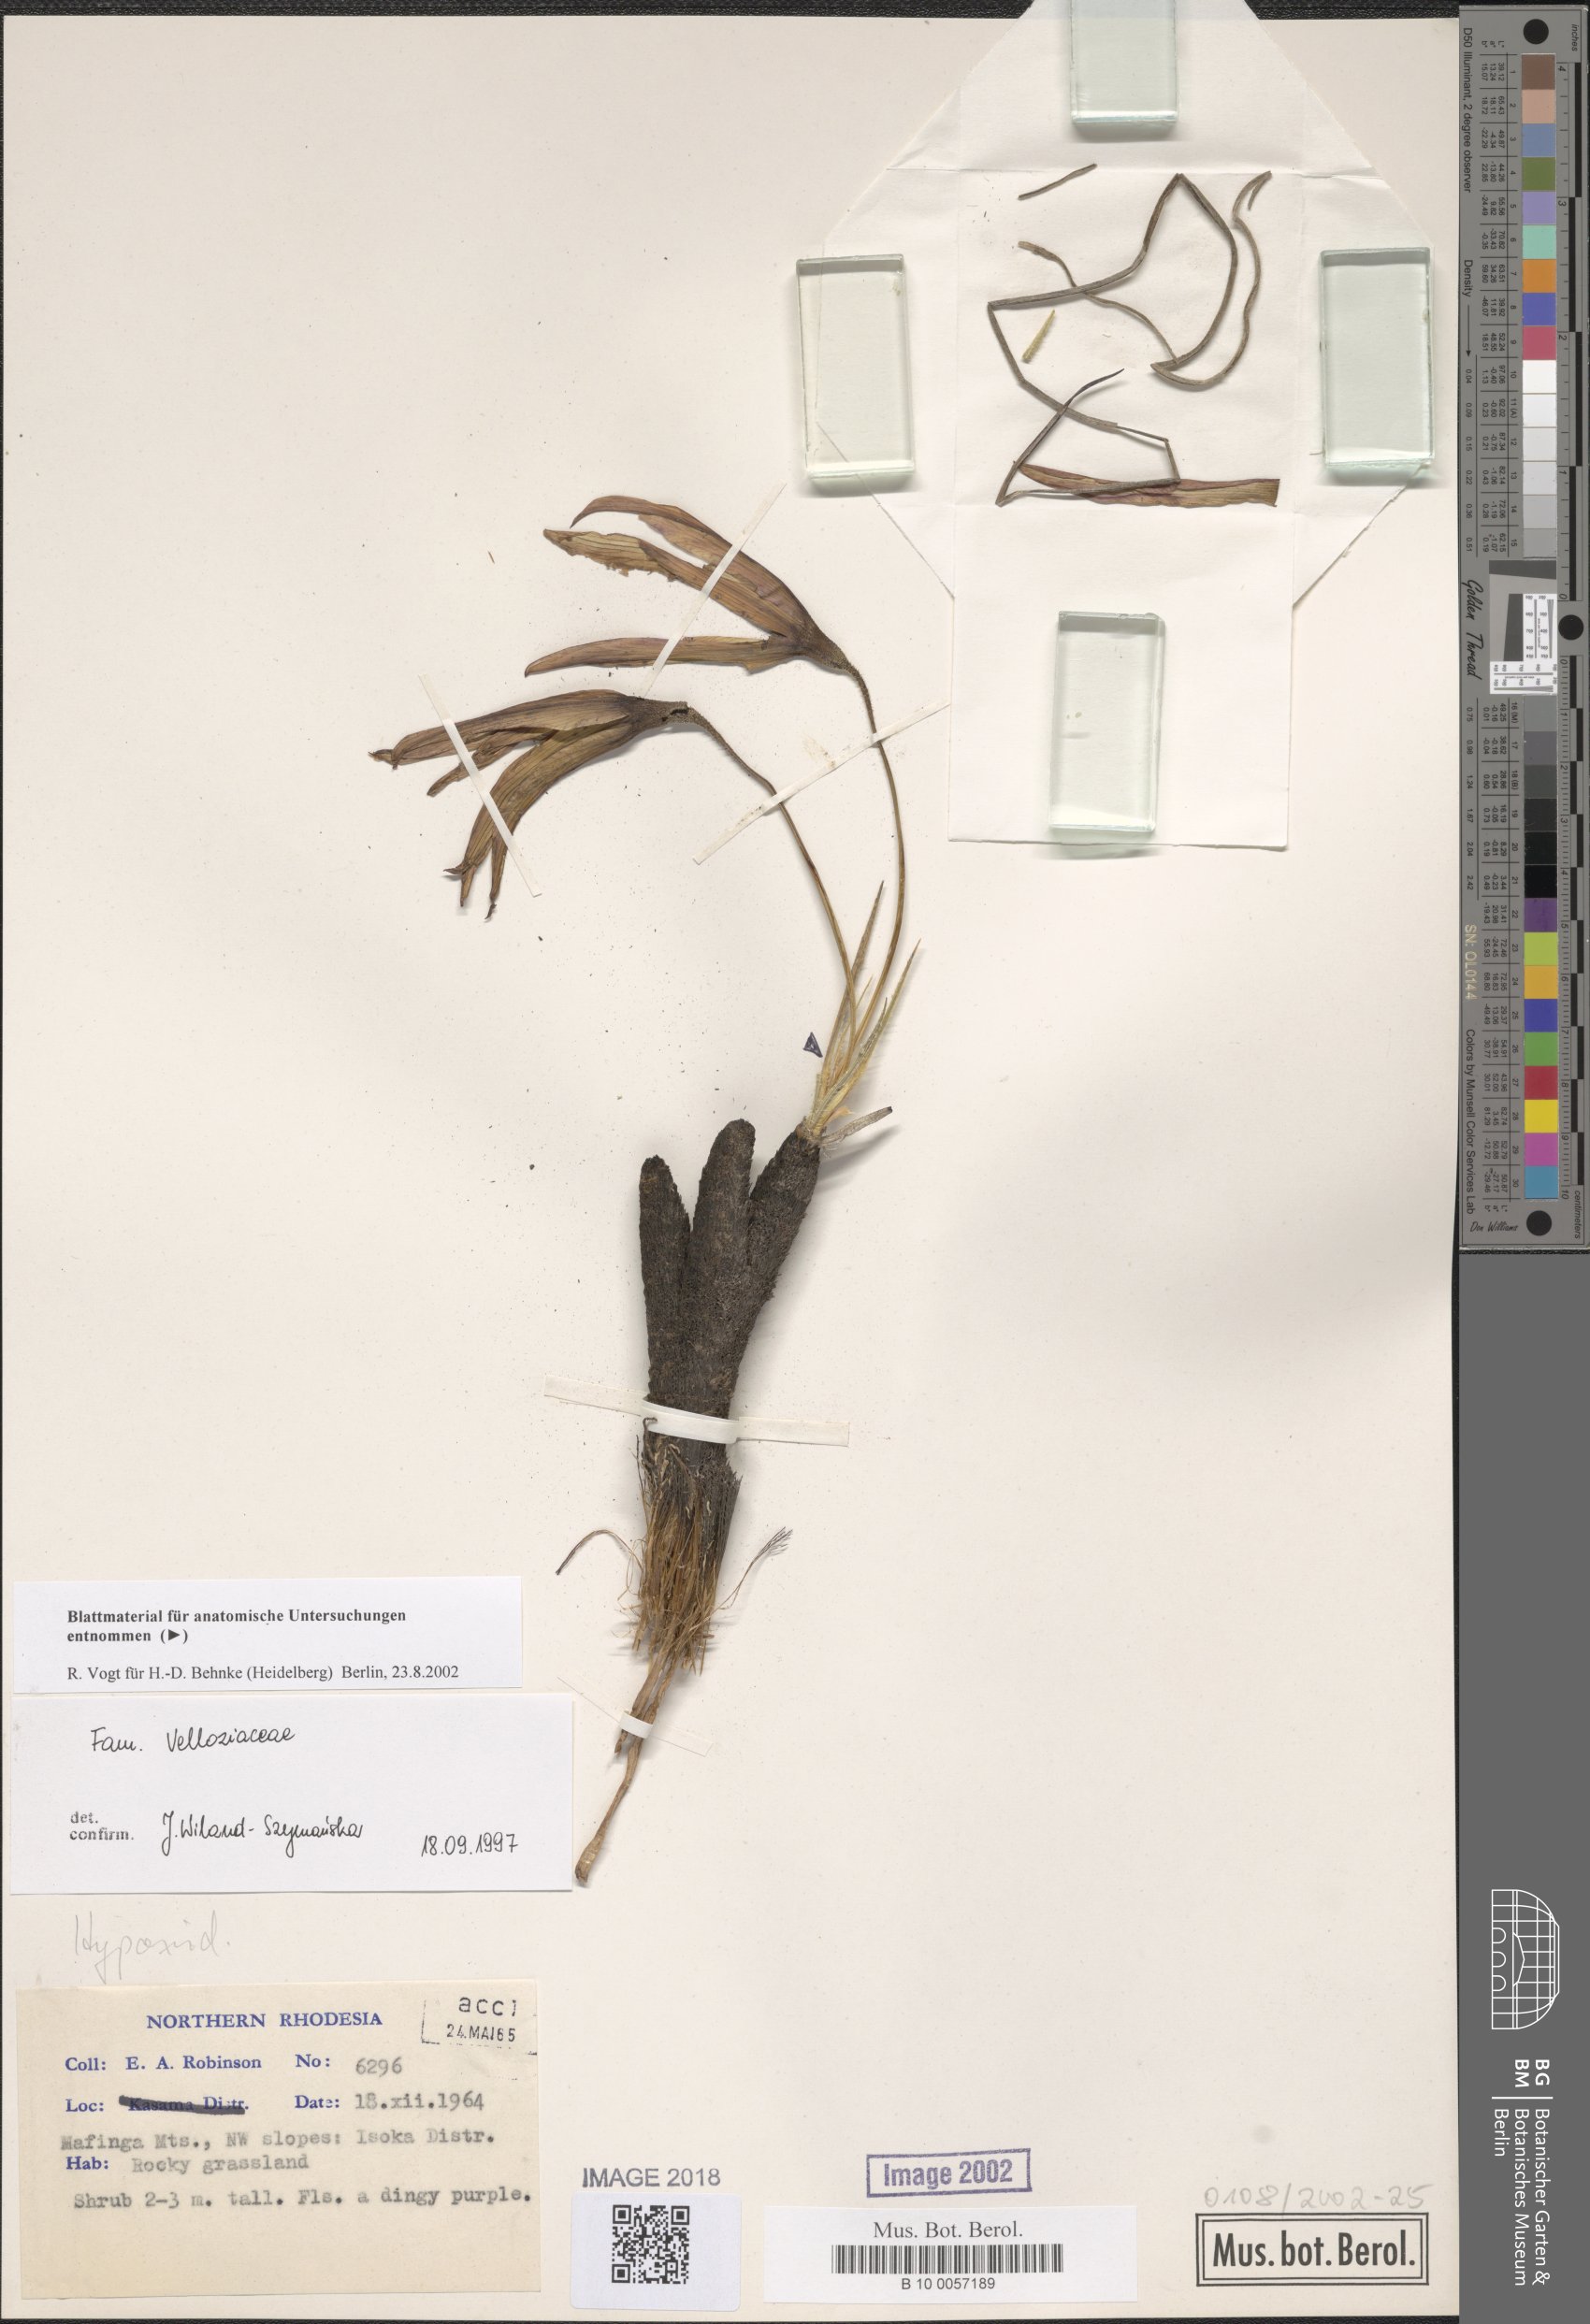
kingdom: Plantae
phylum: Tracheophyta
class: Liliopsida
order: Pandanales
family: Velloziaceae
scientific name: Velloziaceae
